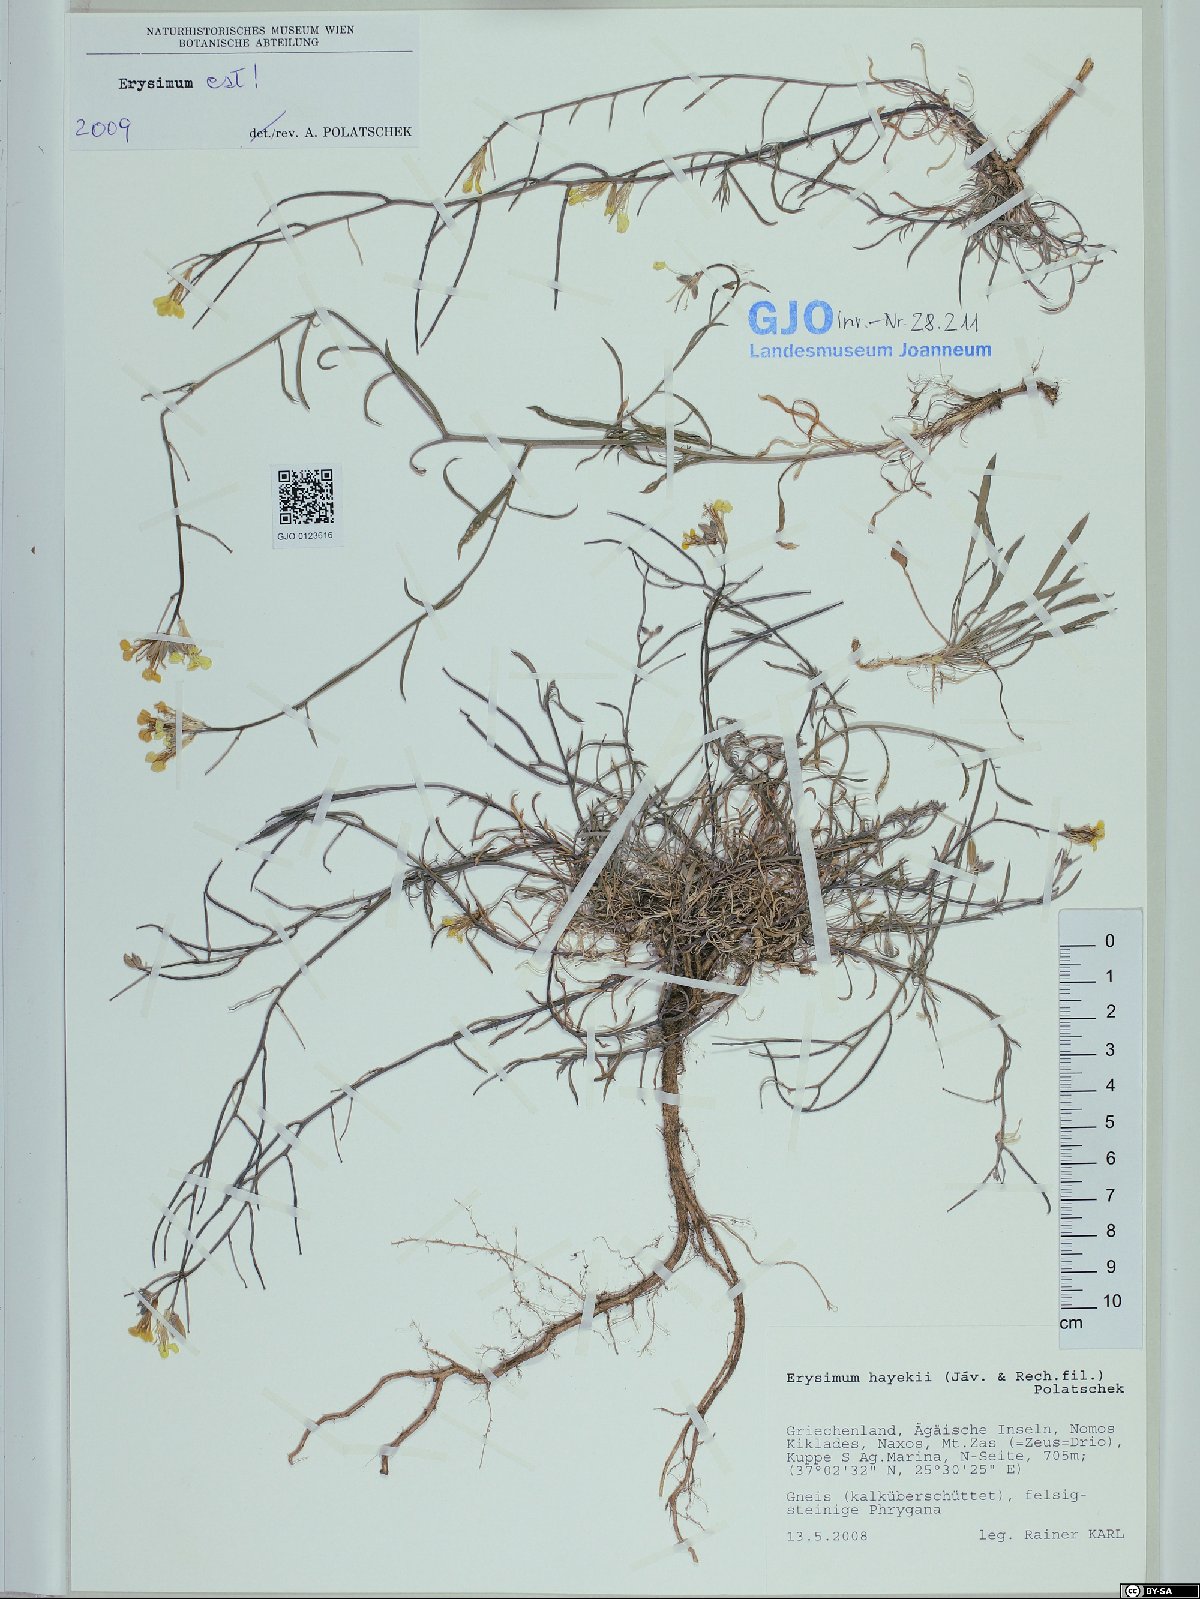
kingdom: Plantae
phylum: Tracheophyta
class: Magnoliopsida
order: Brassicales
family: Brassicaceae
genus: Erysimum
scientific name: Erysimum pusillum
